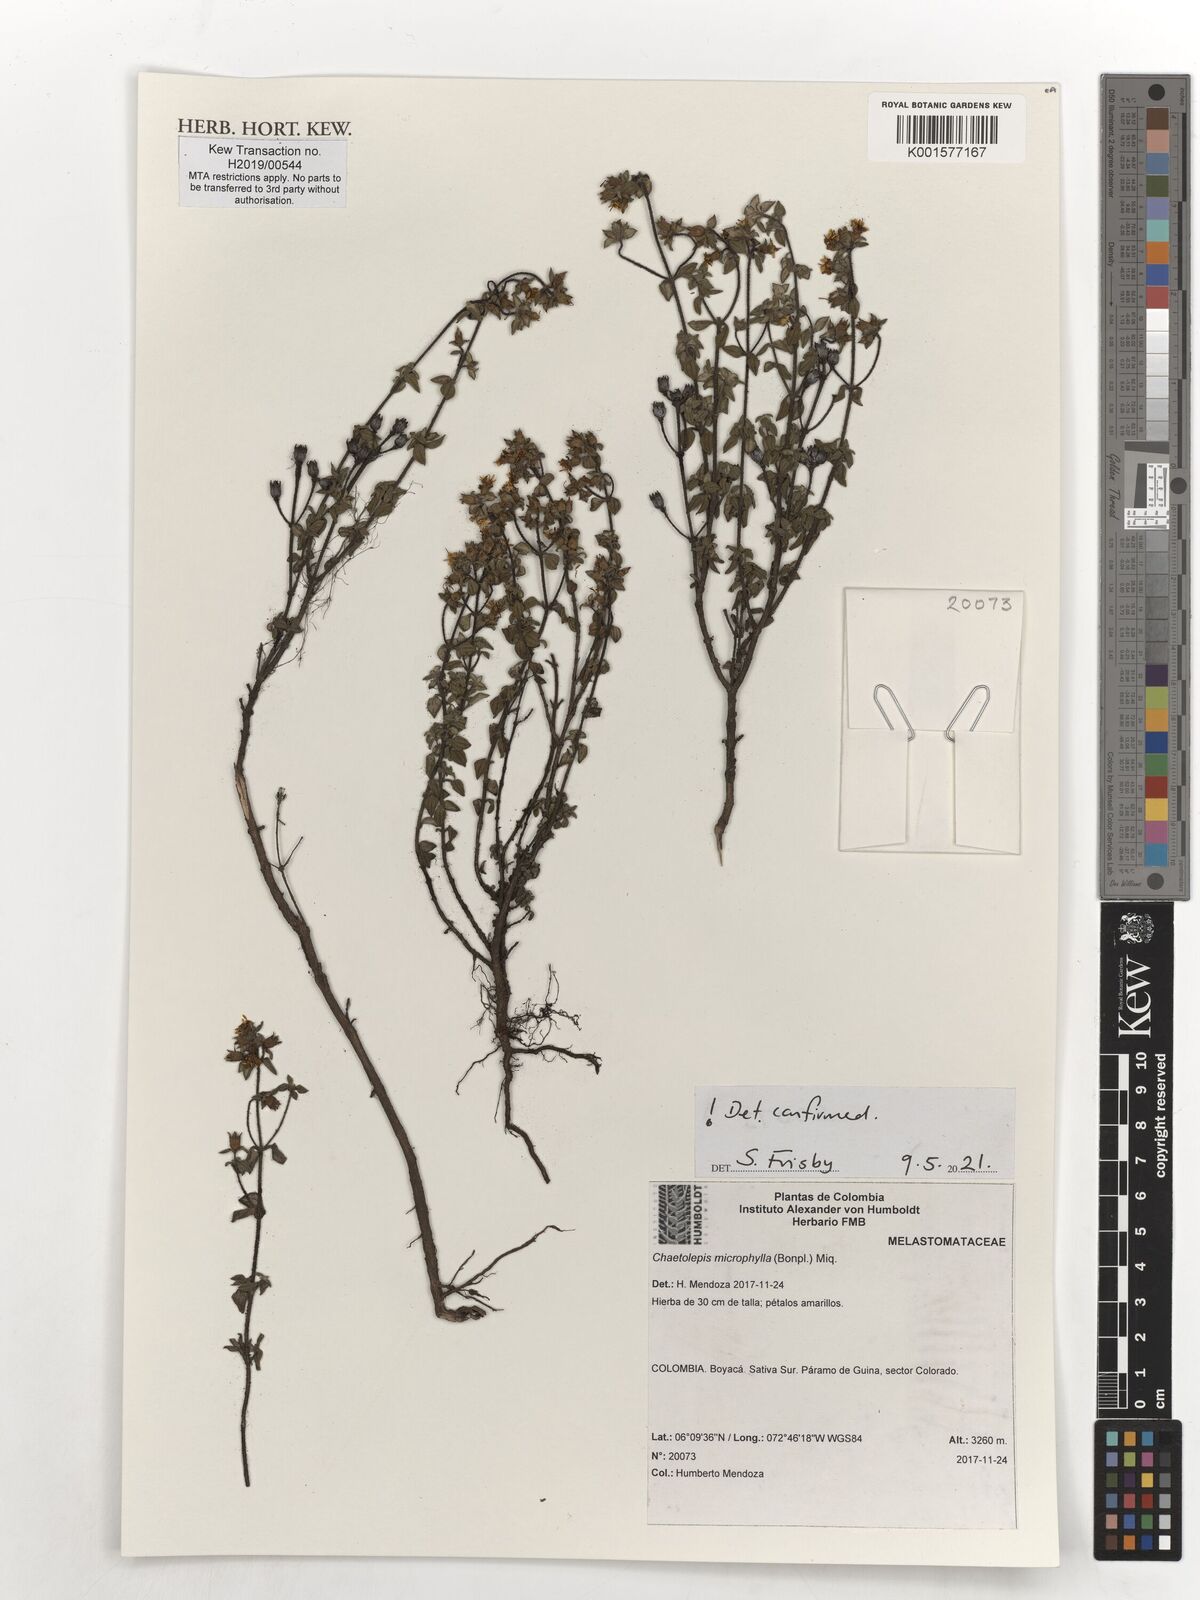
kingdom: Plantae
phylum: Tracheophyta
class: Magnoliopsida
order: Myrtales
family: Melastomataceae
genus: Chaetolepis
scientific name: Chaetolepis microphylla
